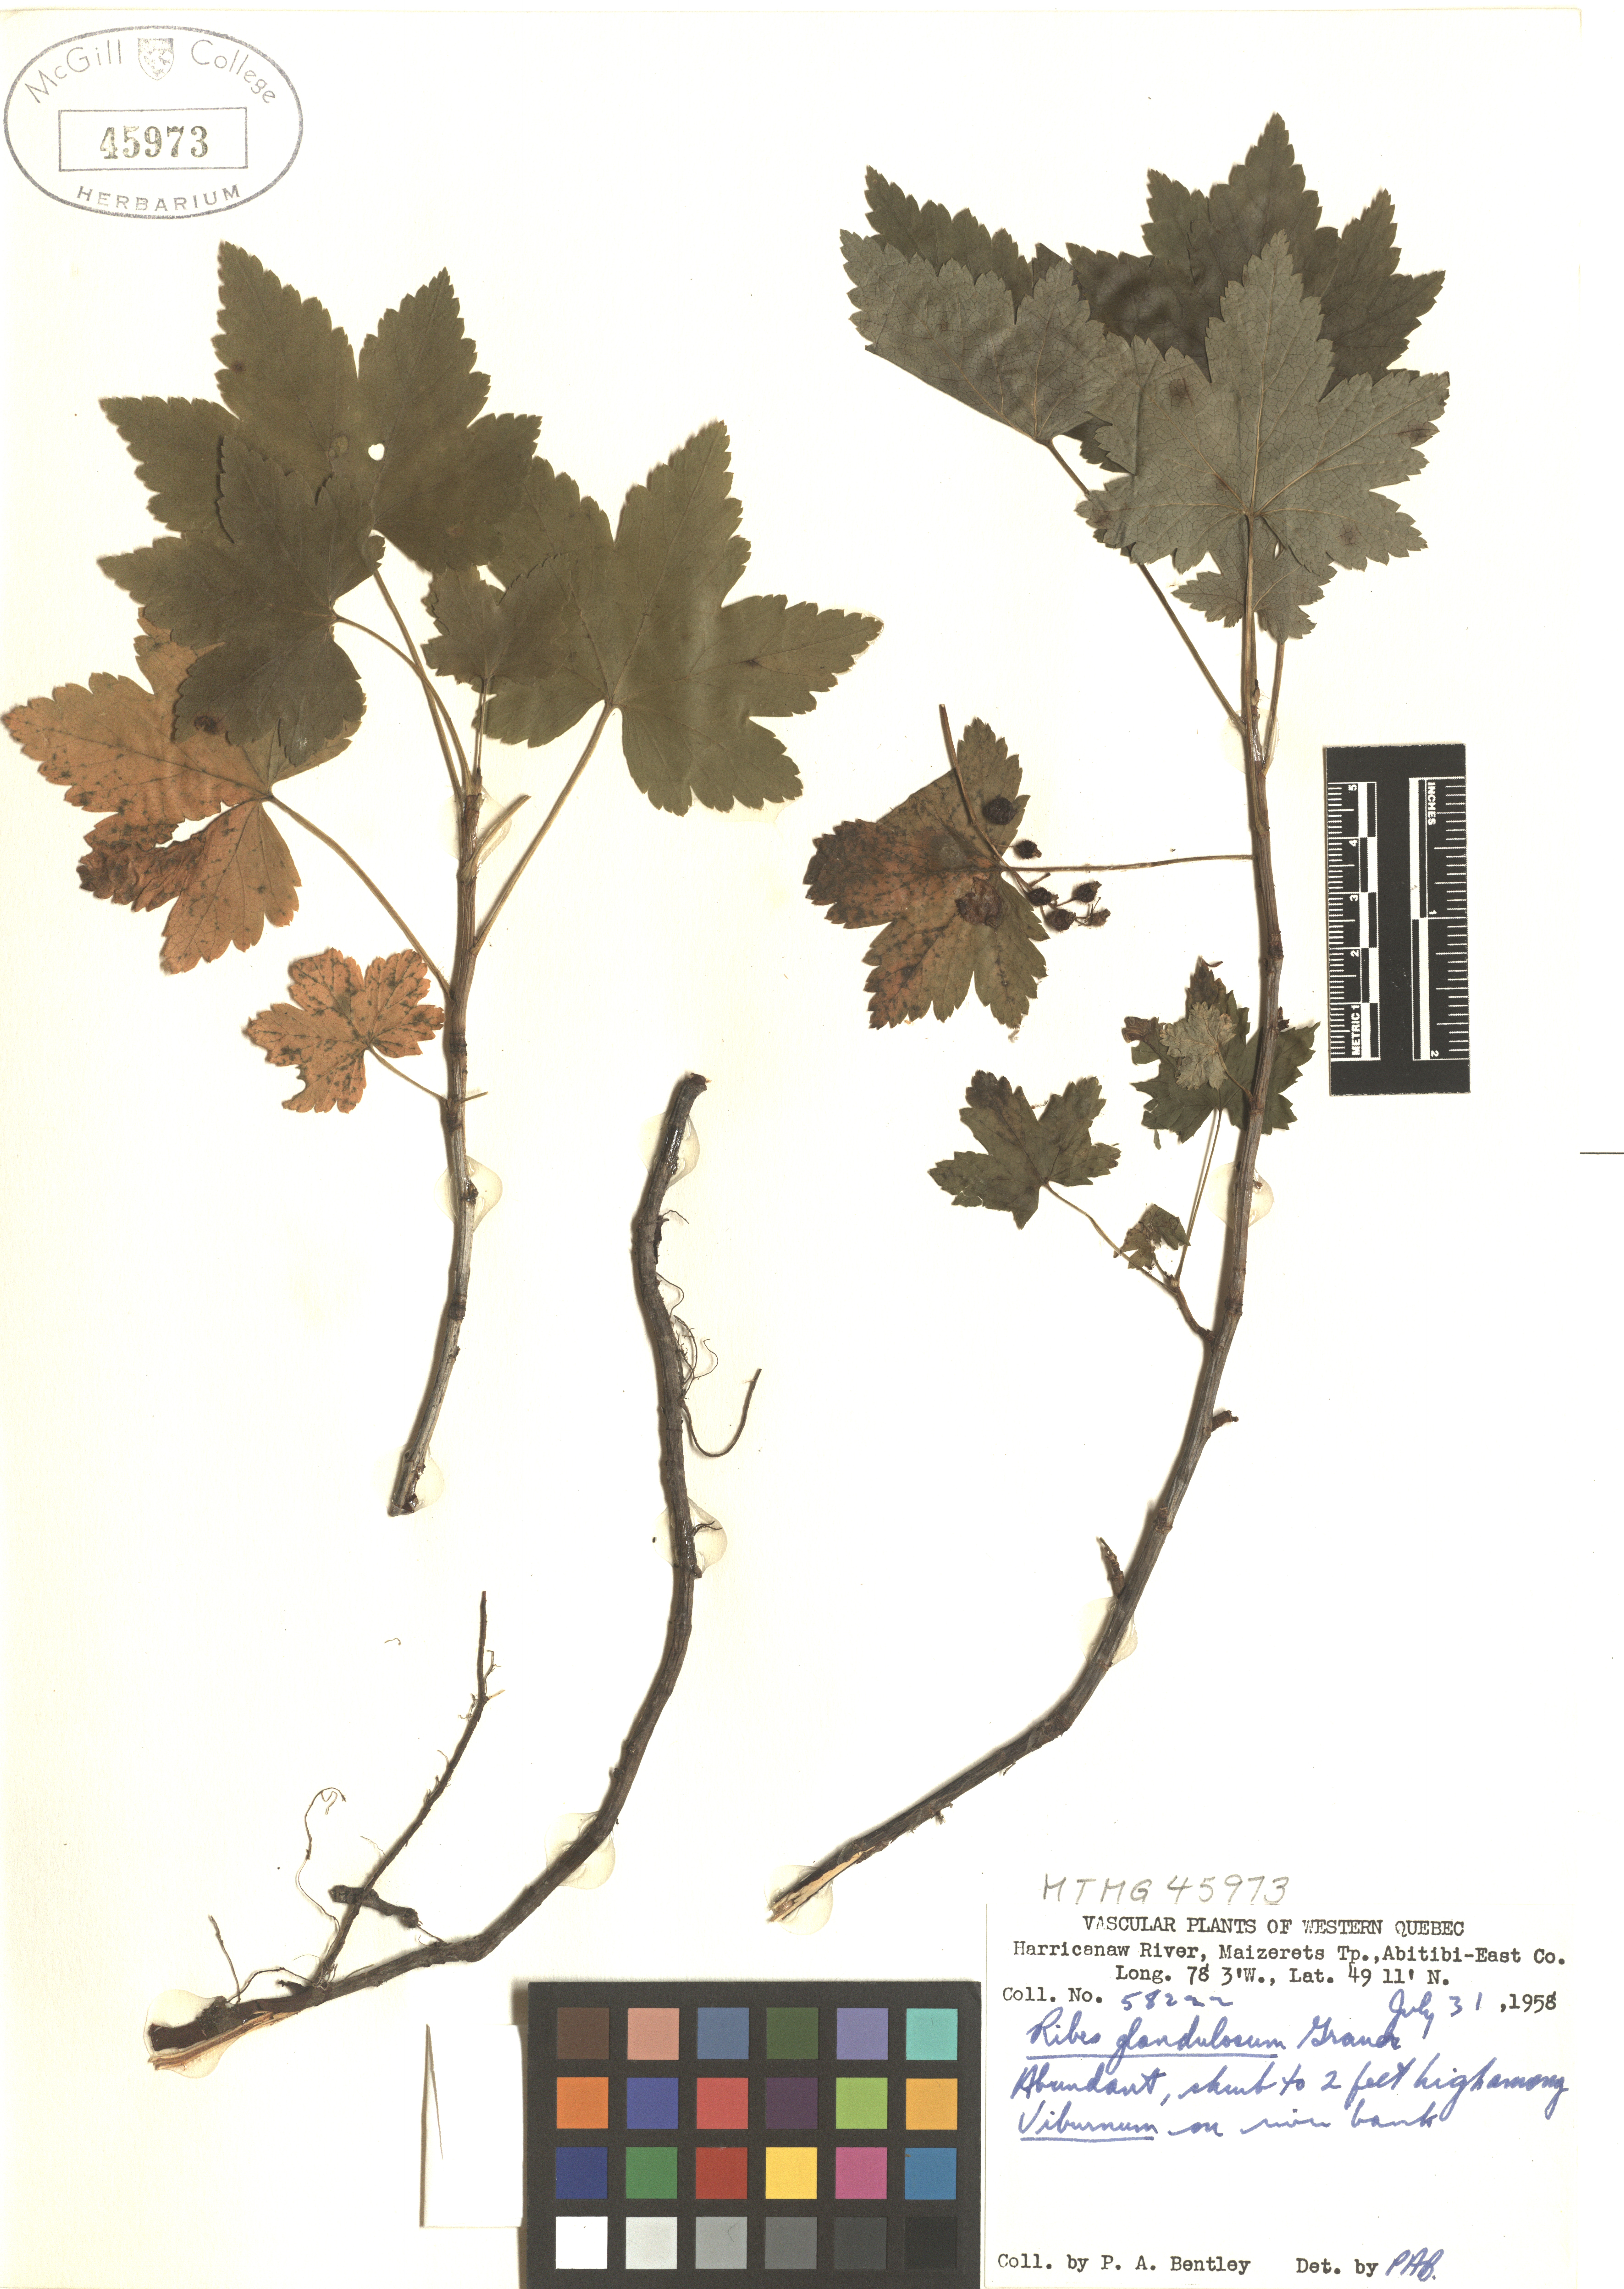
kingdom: Plantae
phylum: Tracheophyta
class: Magnoliopsida
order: Saxifragales
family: Grossulariaceae
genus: Ribes
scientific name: Ribes glandulosum
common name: Skunk currant
